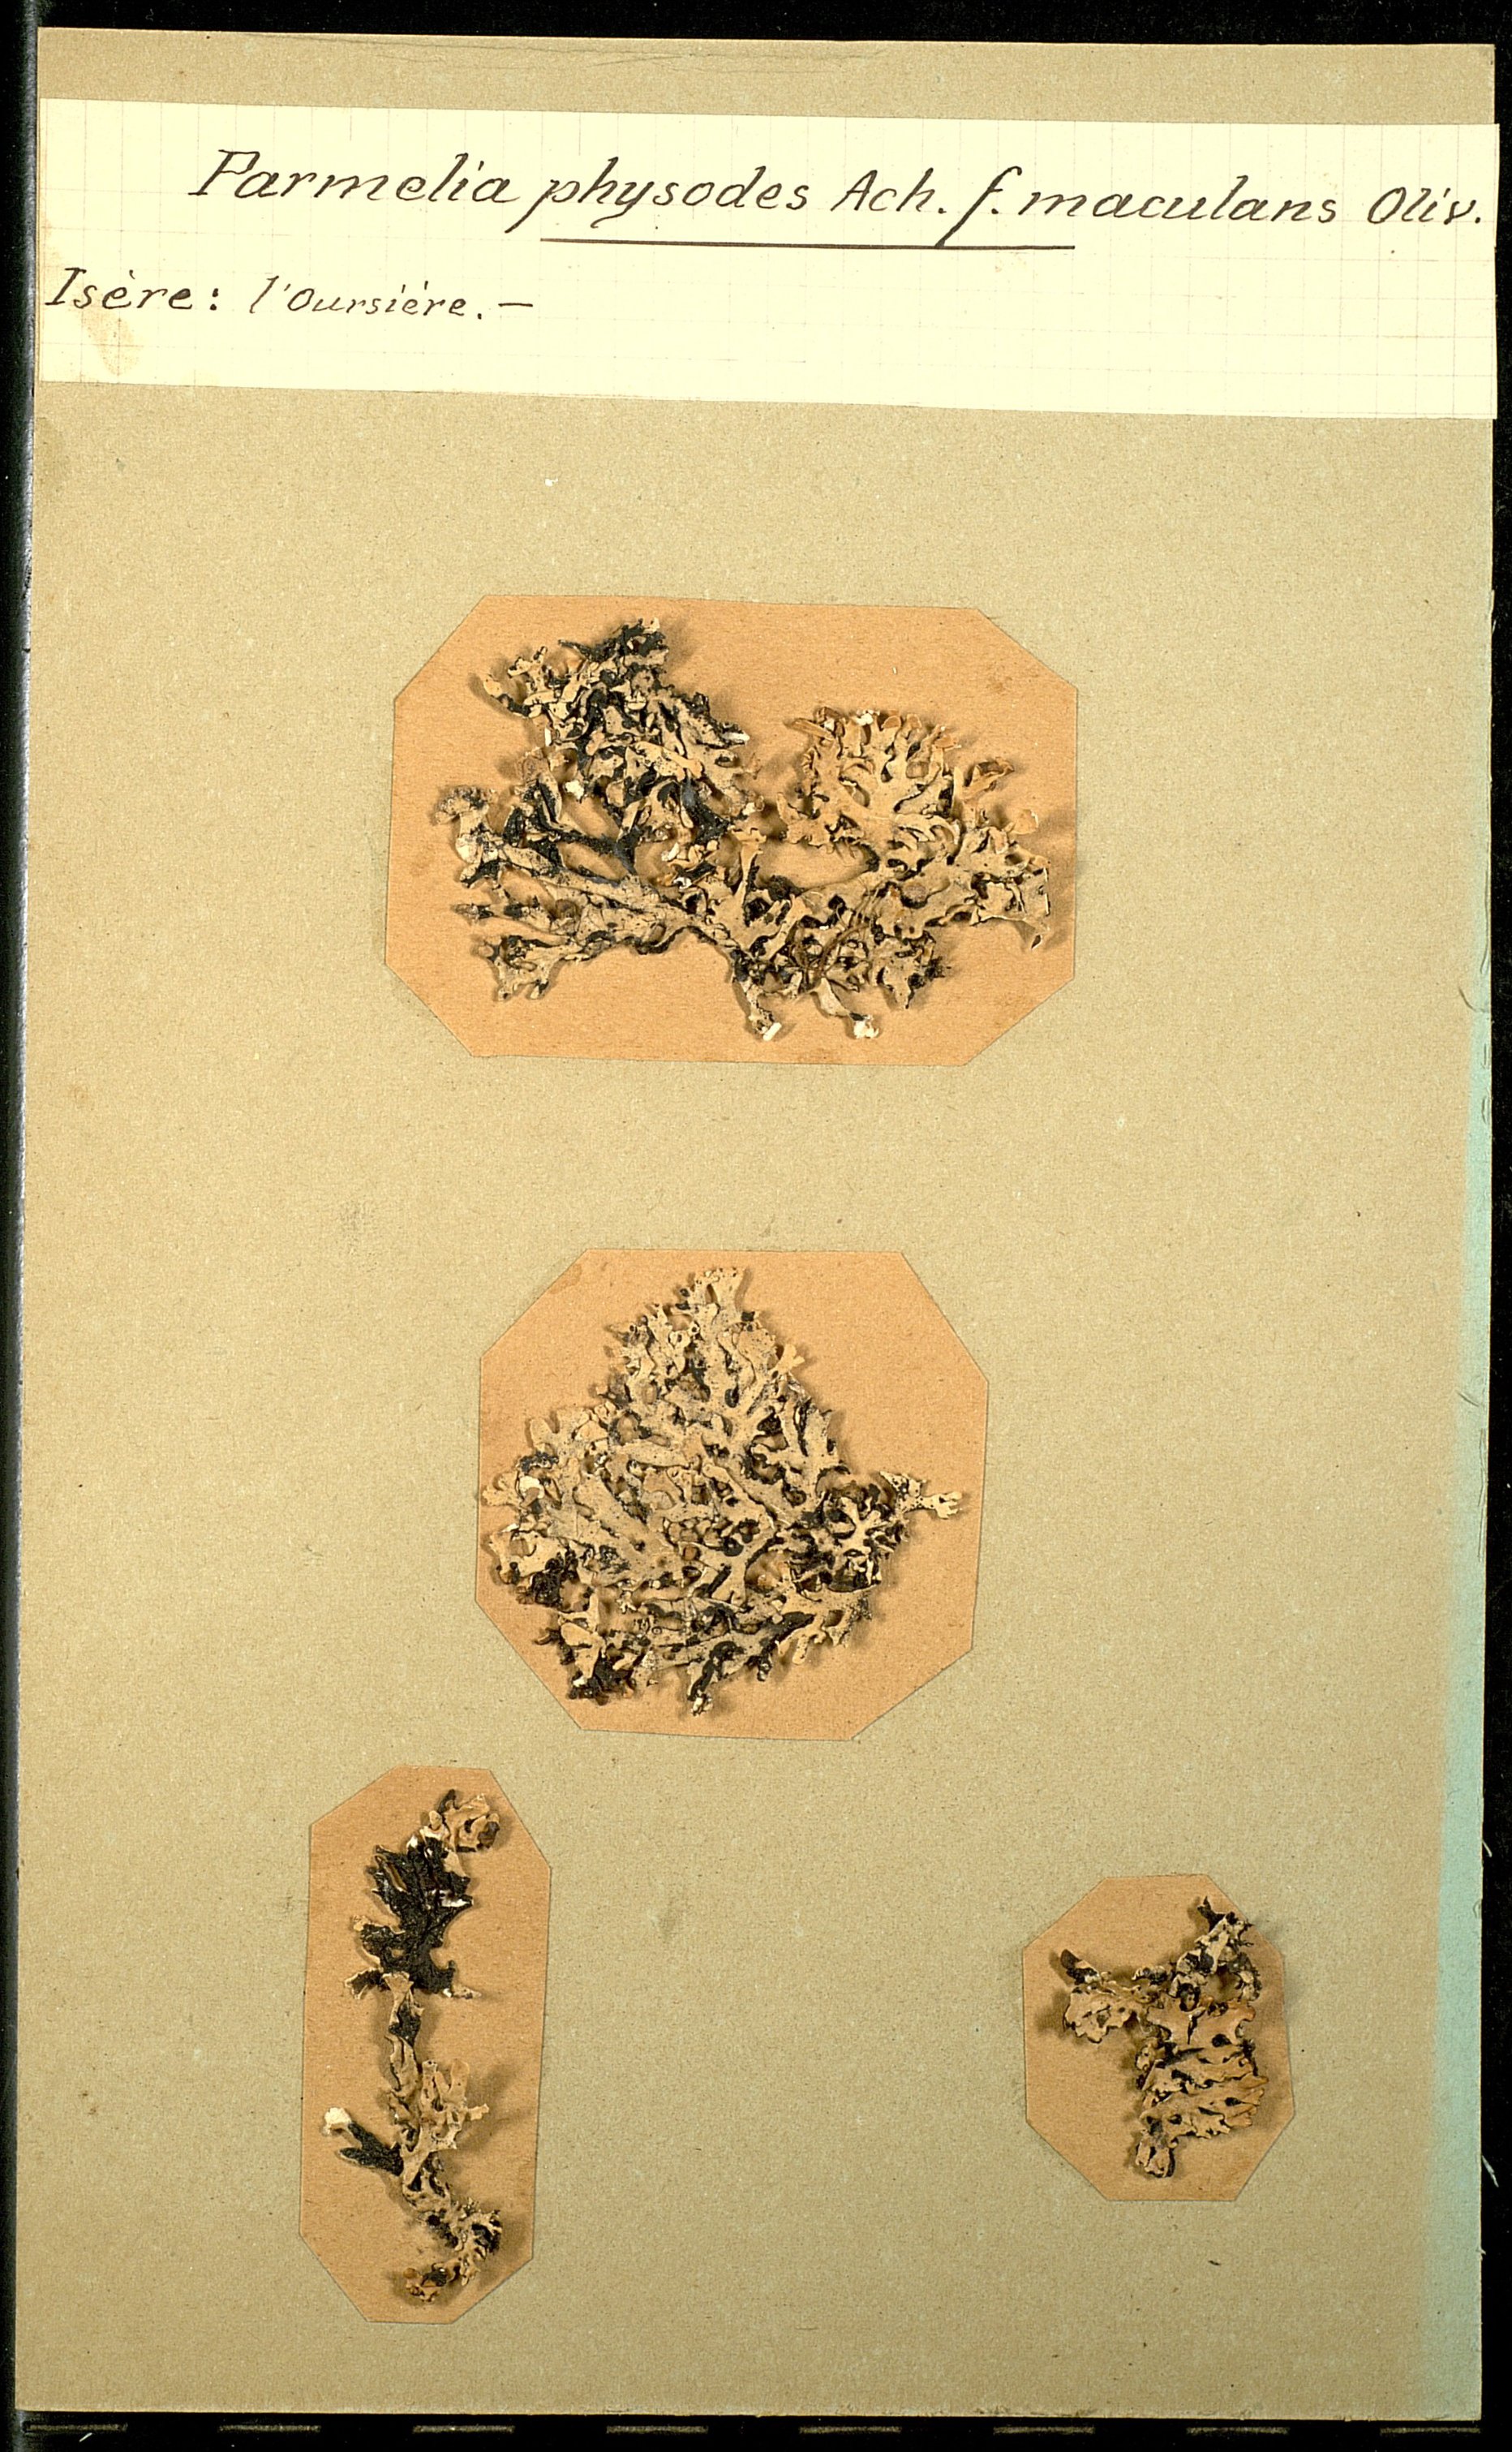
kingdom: Fungi
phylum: Ascomycota
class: Lecanoromycetes
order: Lecanorales
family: Parmeliaceae
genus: Hypogymnia
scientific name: Hypogymnia physodes
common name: Dark crottle
